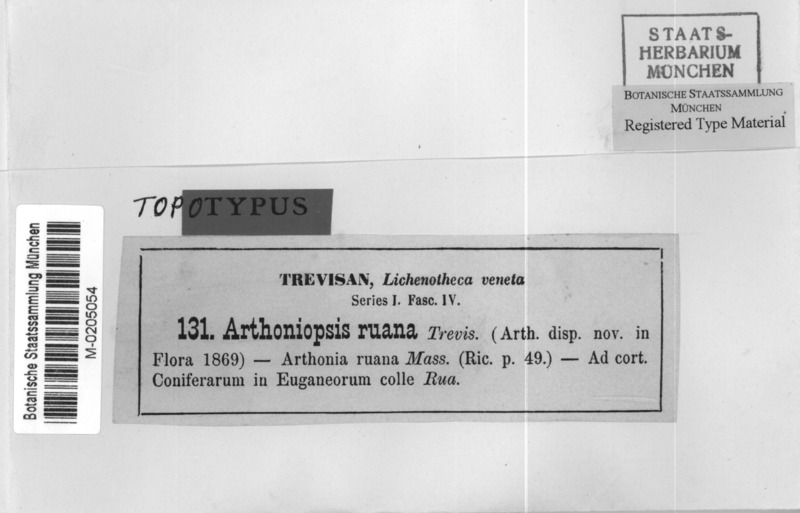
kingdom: Fungi
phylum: Ascomycota
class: Arthoniomycetes
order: Arthoniales
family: Arthoniaceae
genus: Arthothelium
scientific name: Arthothelium ruanum
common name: Jaguar-spot comma lichen
